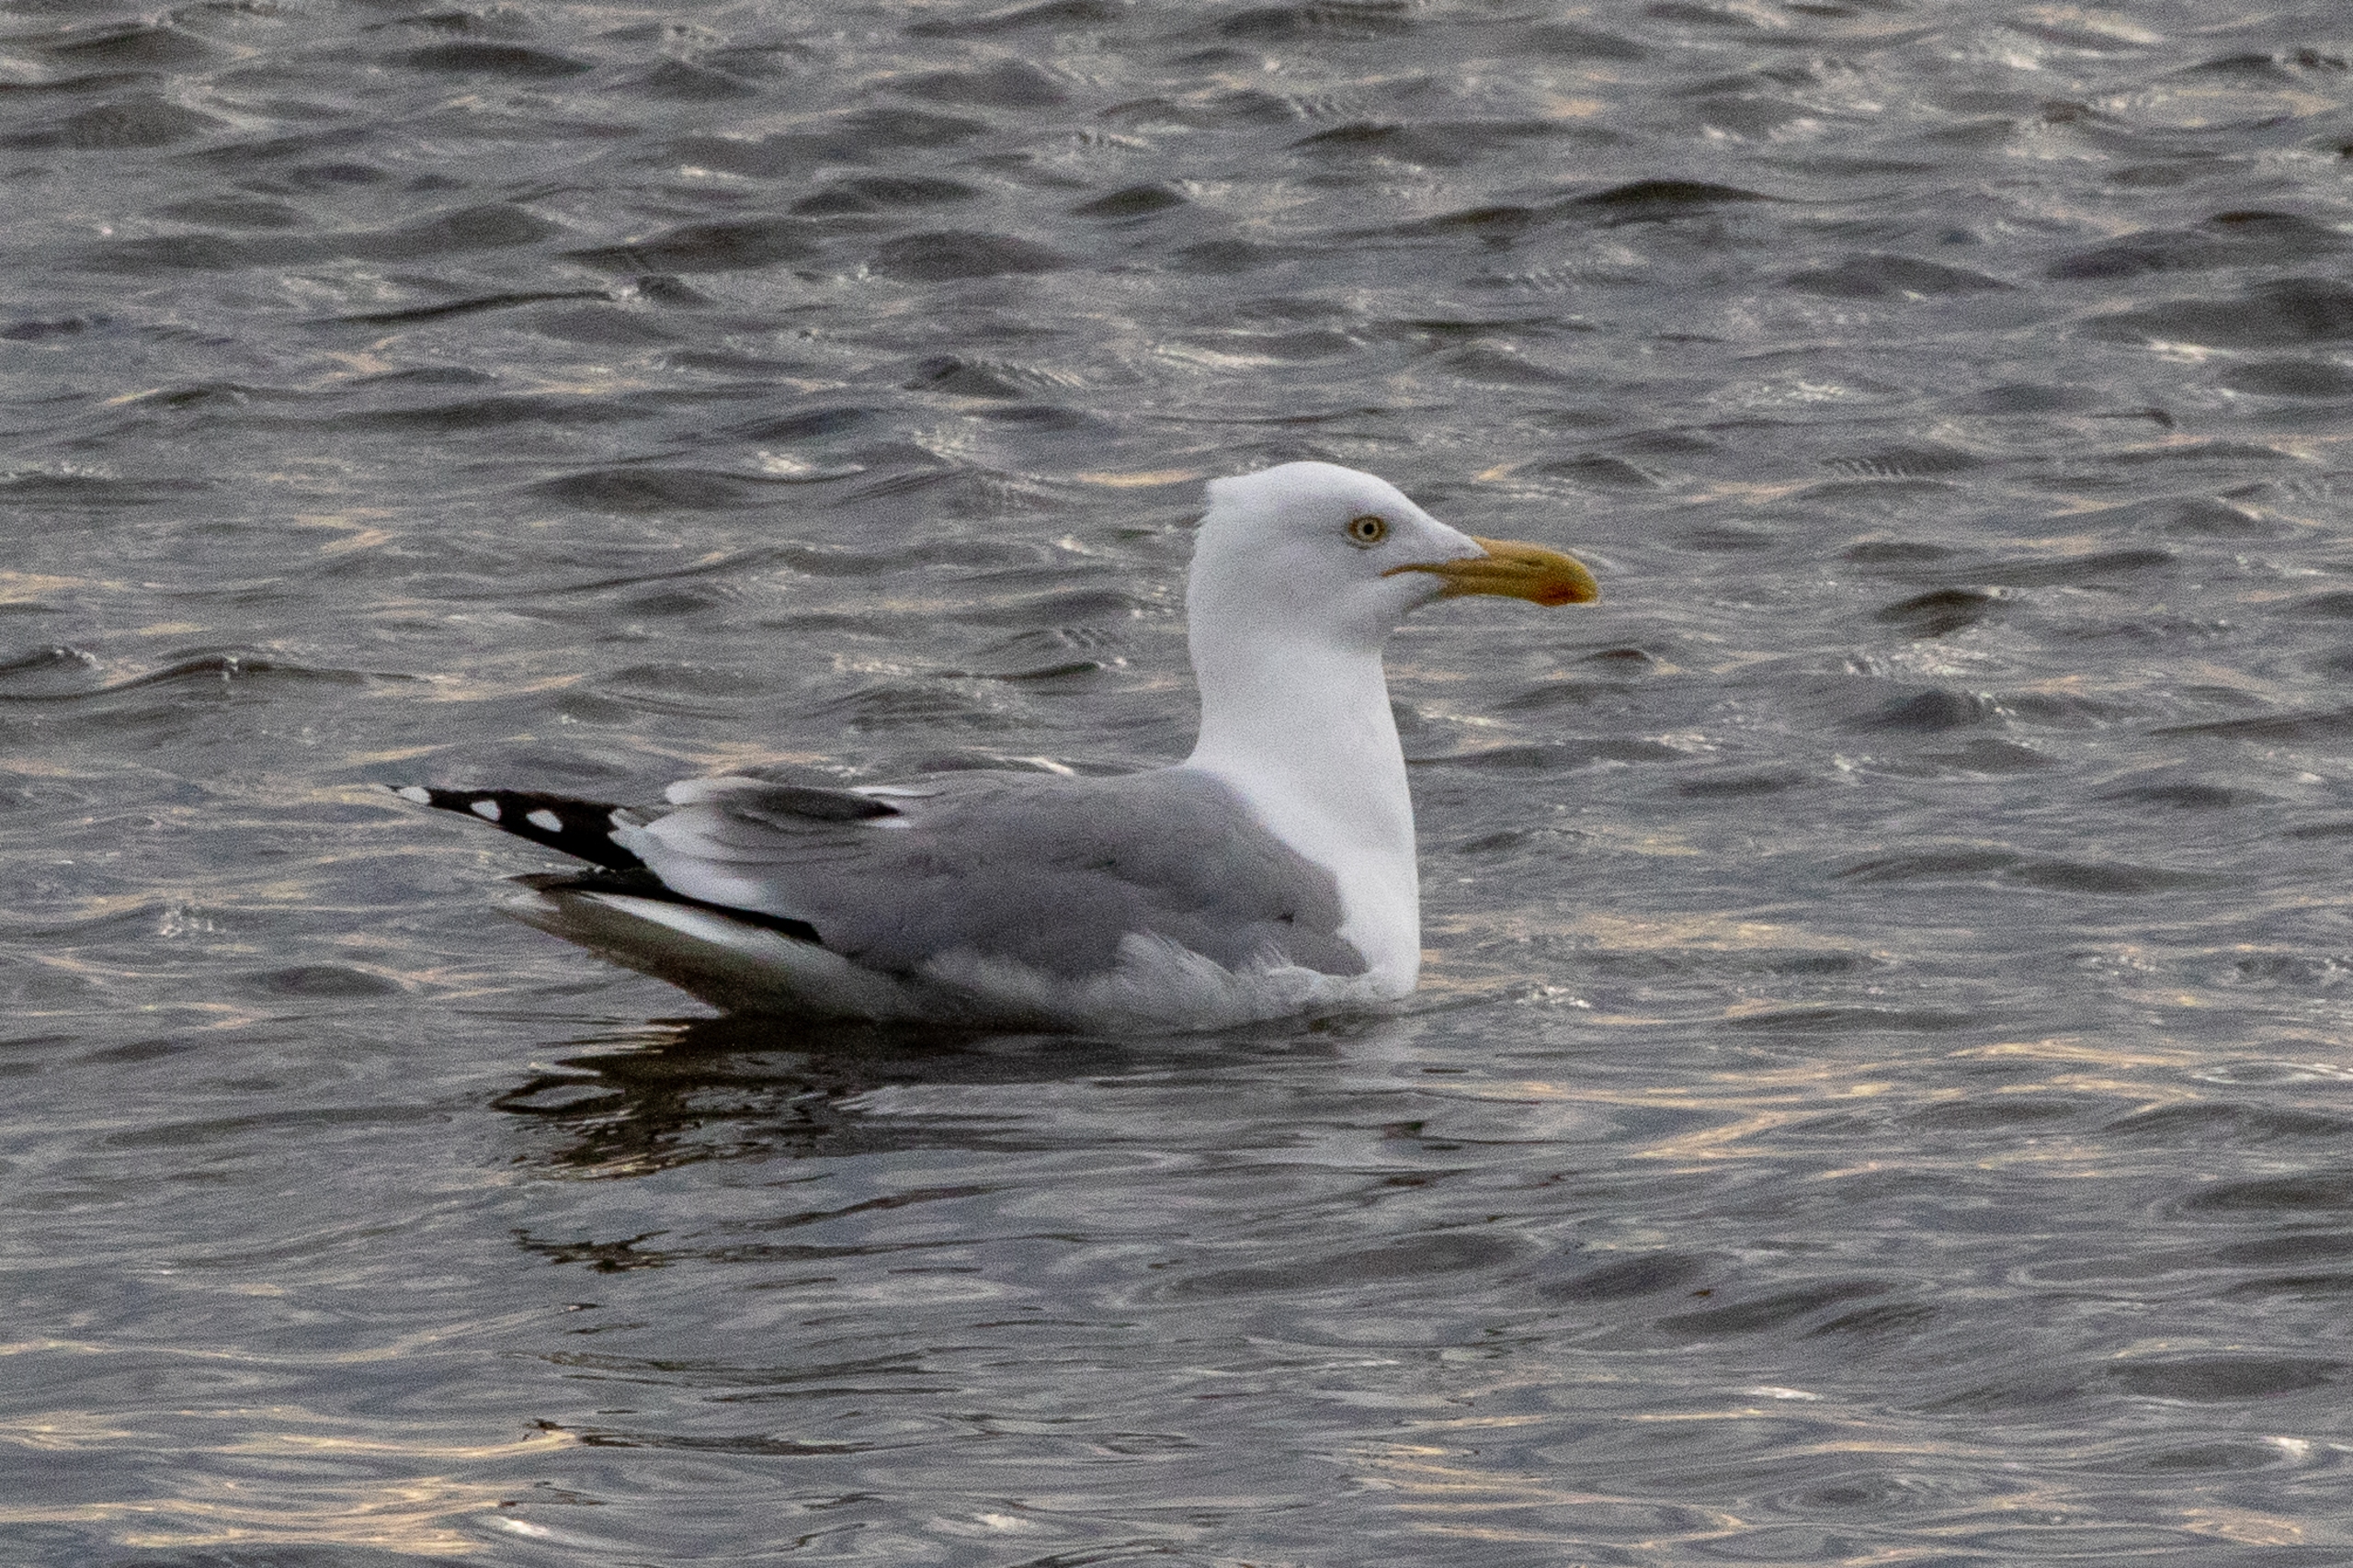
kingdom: Animalia
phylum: Chordata
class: Aves
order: Charadriiformes
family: Laridae
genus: Larus
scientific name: Larus argentatus
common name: Sølvmåge
